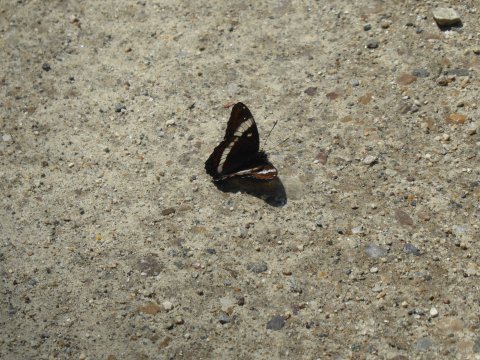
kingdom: Animalia
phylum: Arthropoda
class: Insecta
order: Lepidoptera
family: Nymphalidae
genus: Limenitis
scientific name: Limenitis arthemis
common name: Red-spotted Admiral
